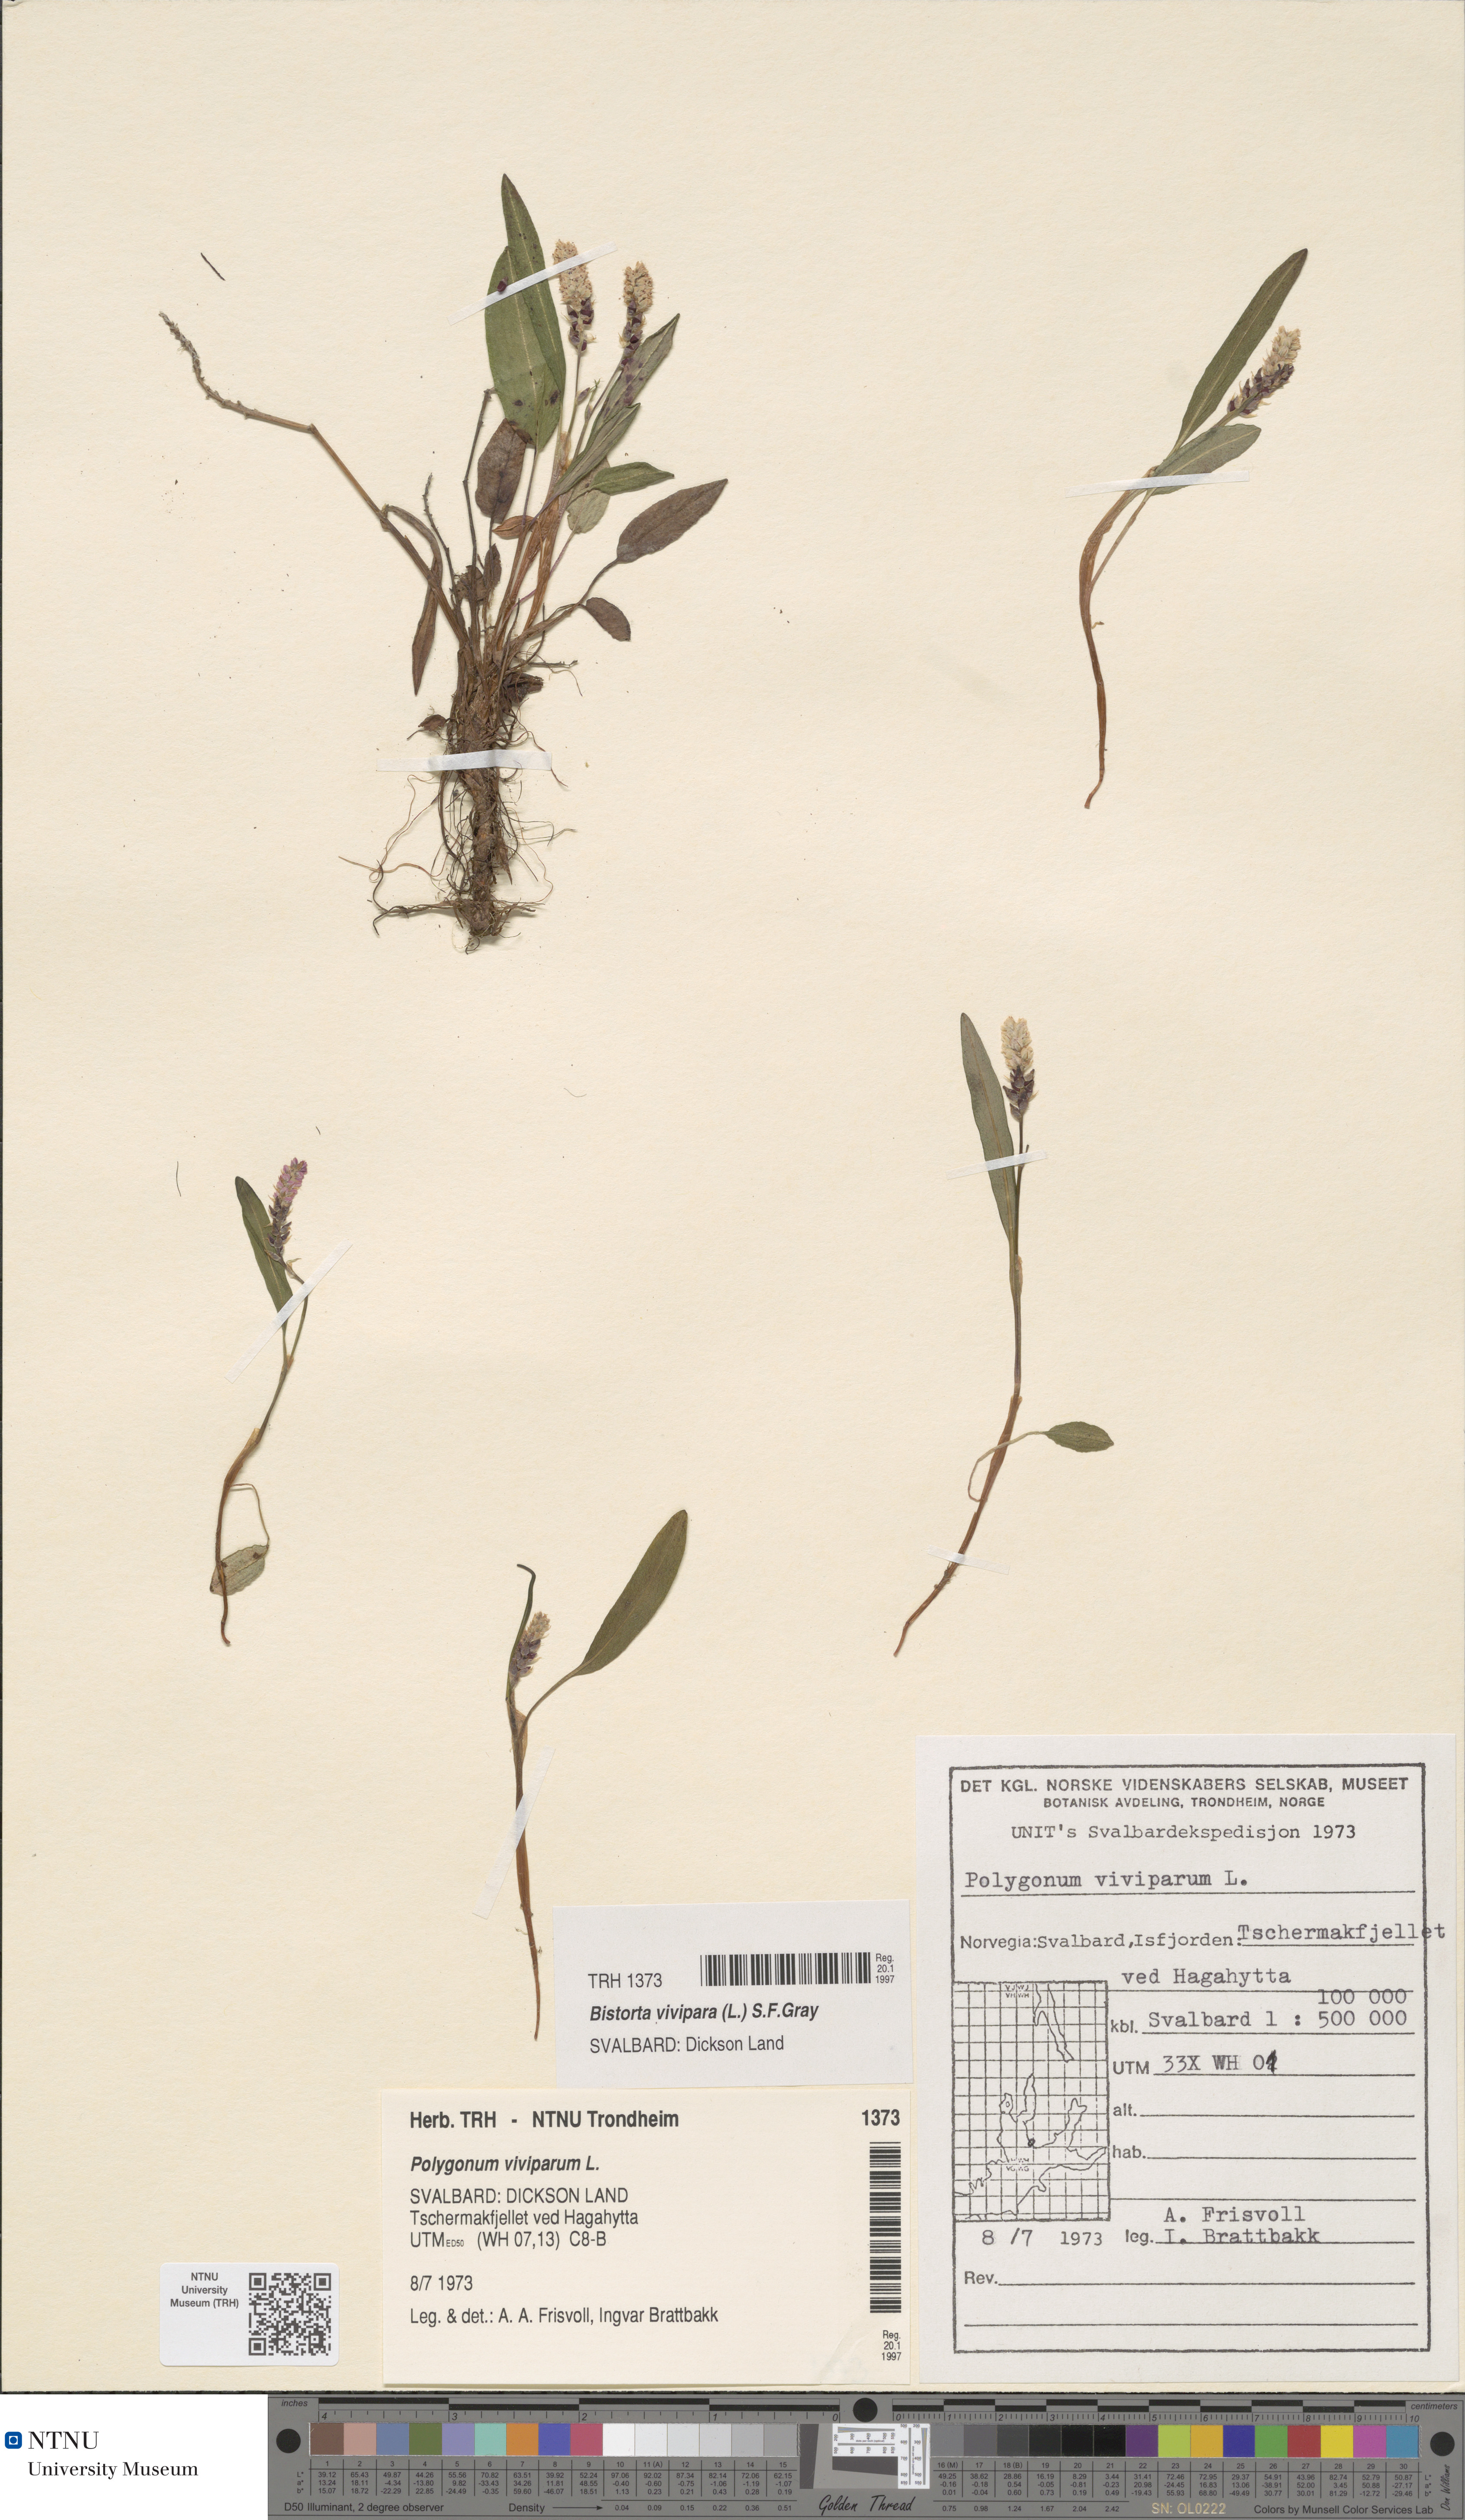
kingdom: Plantae
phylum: Tracheophyta
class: Magnoliopsida
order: Caryophyllales
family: Polygonaceae
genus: Bistorta
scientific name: Bistorta vivipara
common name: Alpine bistort
